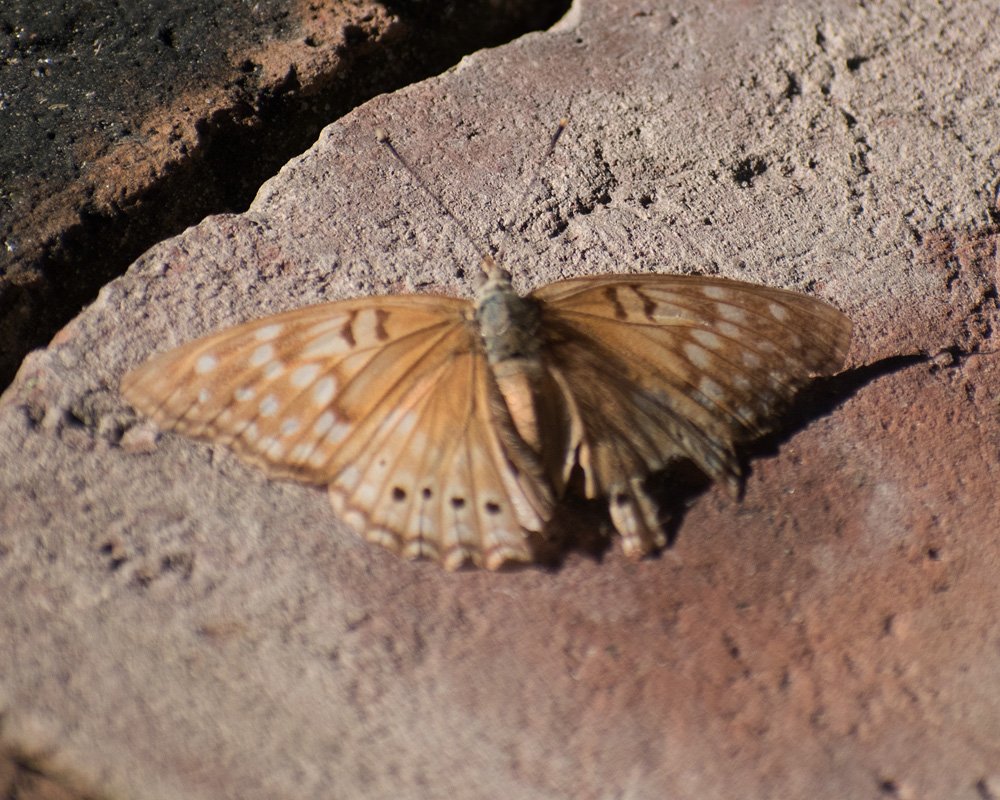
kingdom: Animalia
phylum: Arthropoda
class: Insecta
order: Lepidoptera
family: Nymphalidae
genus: Asterocampa
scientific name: Asterocampa clyton
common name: Tawny Emperor
